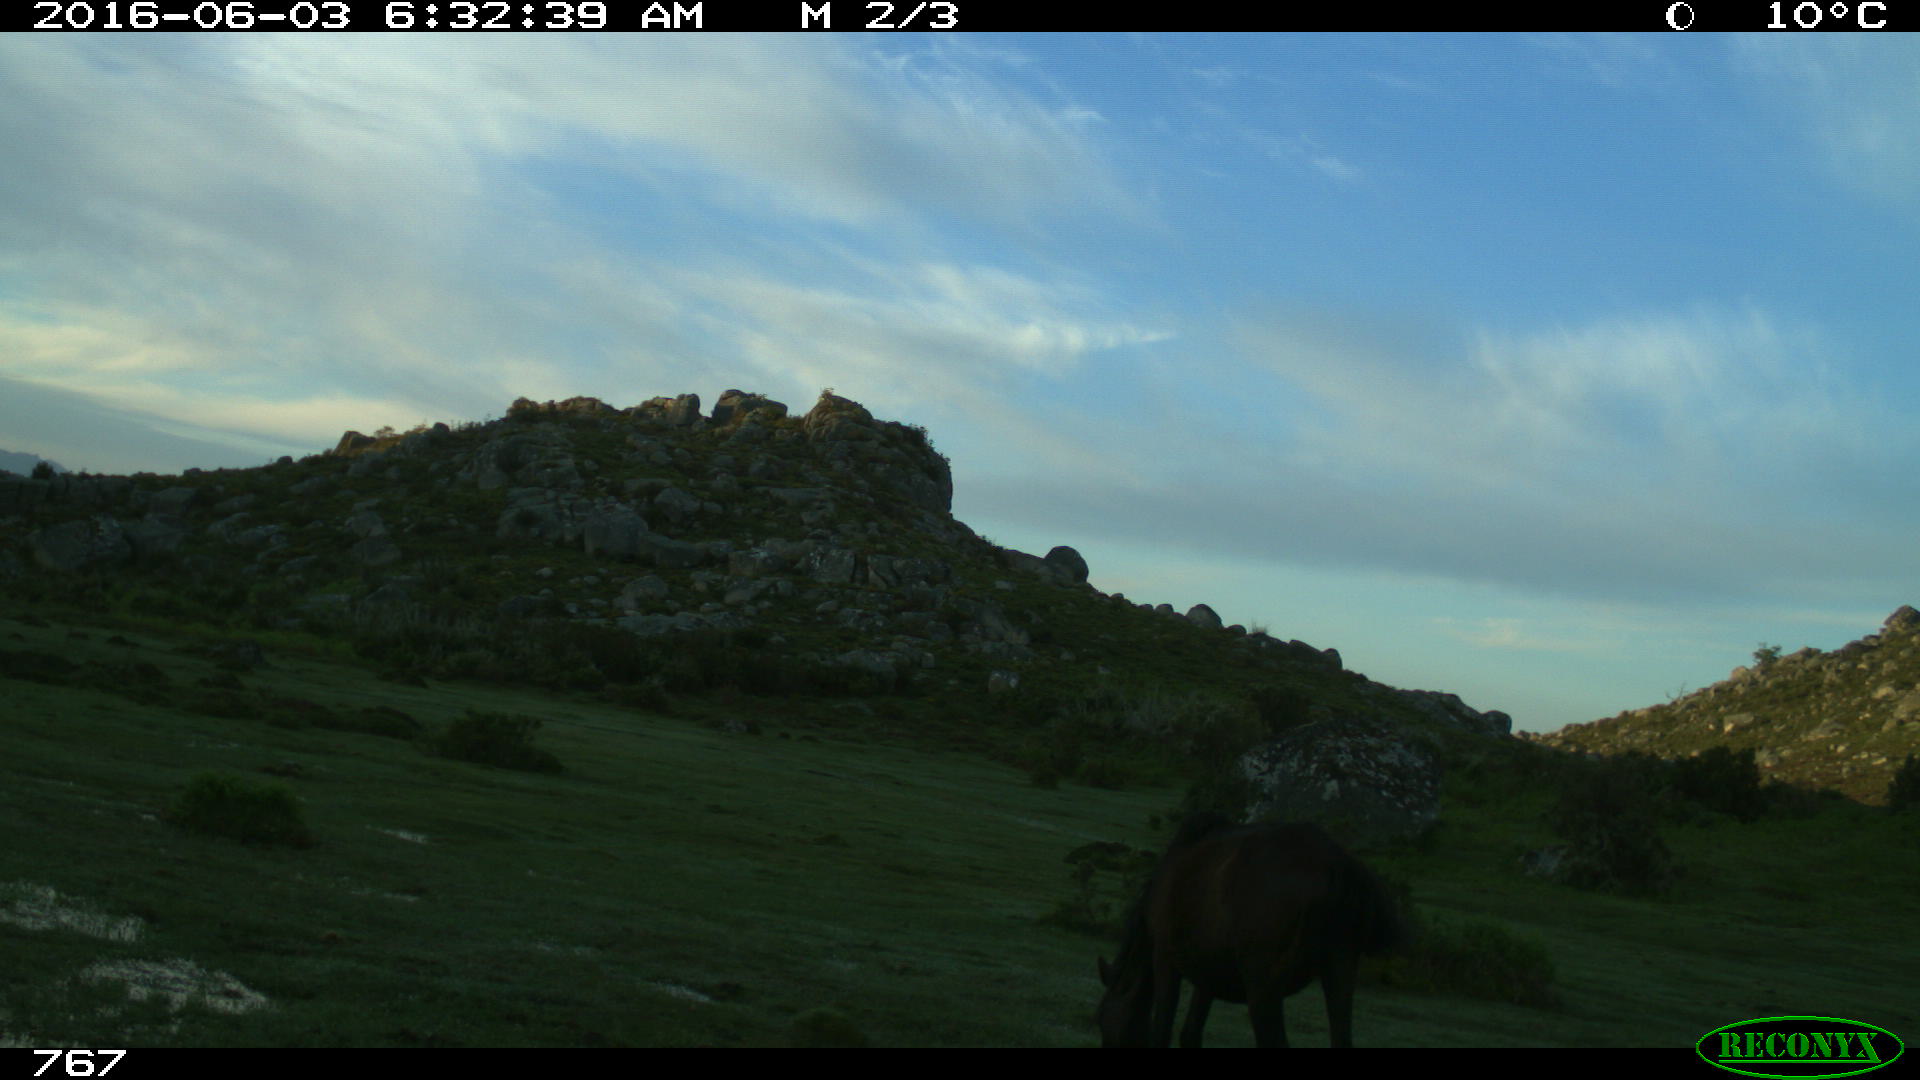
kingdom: Animalia
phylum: Chordata
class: Mammalia
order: Perissodactyla
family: Equidae
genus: Equus
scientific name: Equus caballus
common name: Horse
